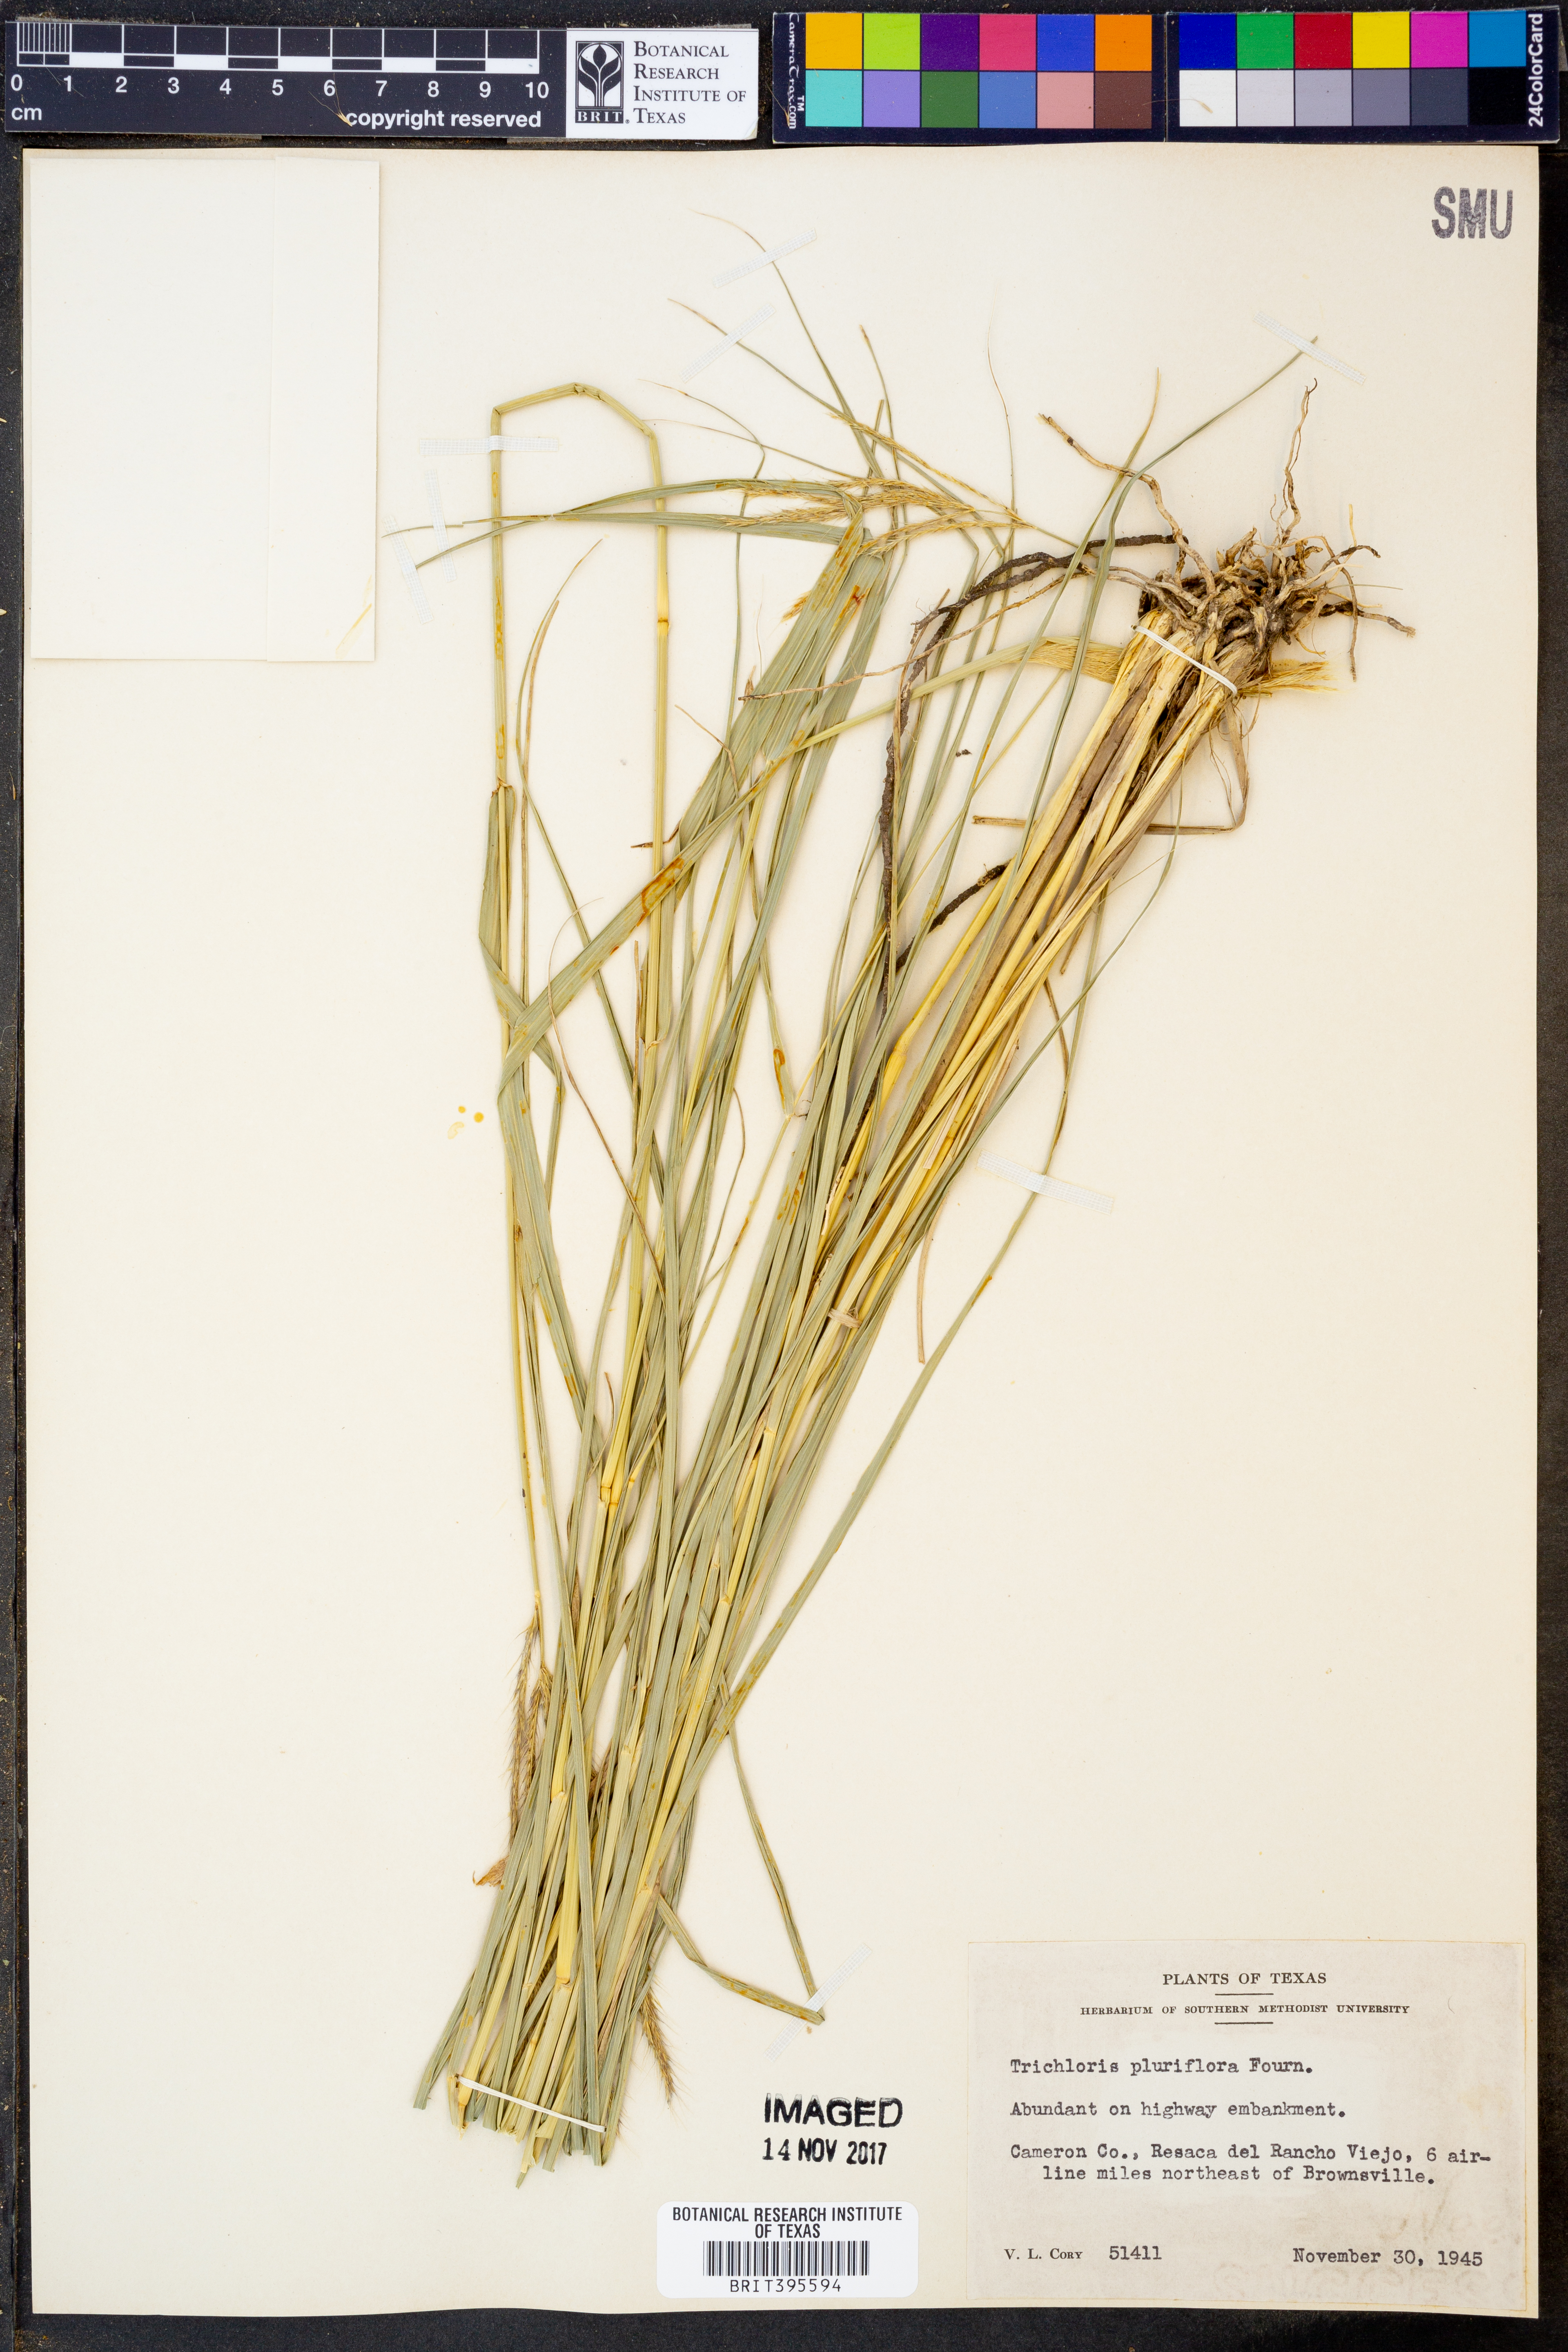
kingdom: Plantae
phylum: Tracheophyta
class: Liliopsida
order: Poales
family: Poaceae
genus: Leptochloa
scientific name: Leptochloa pluriflora
